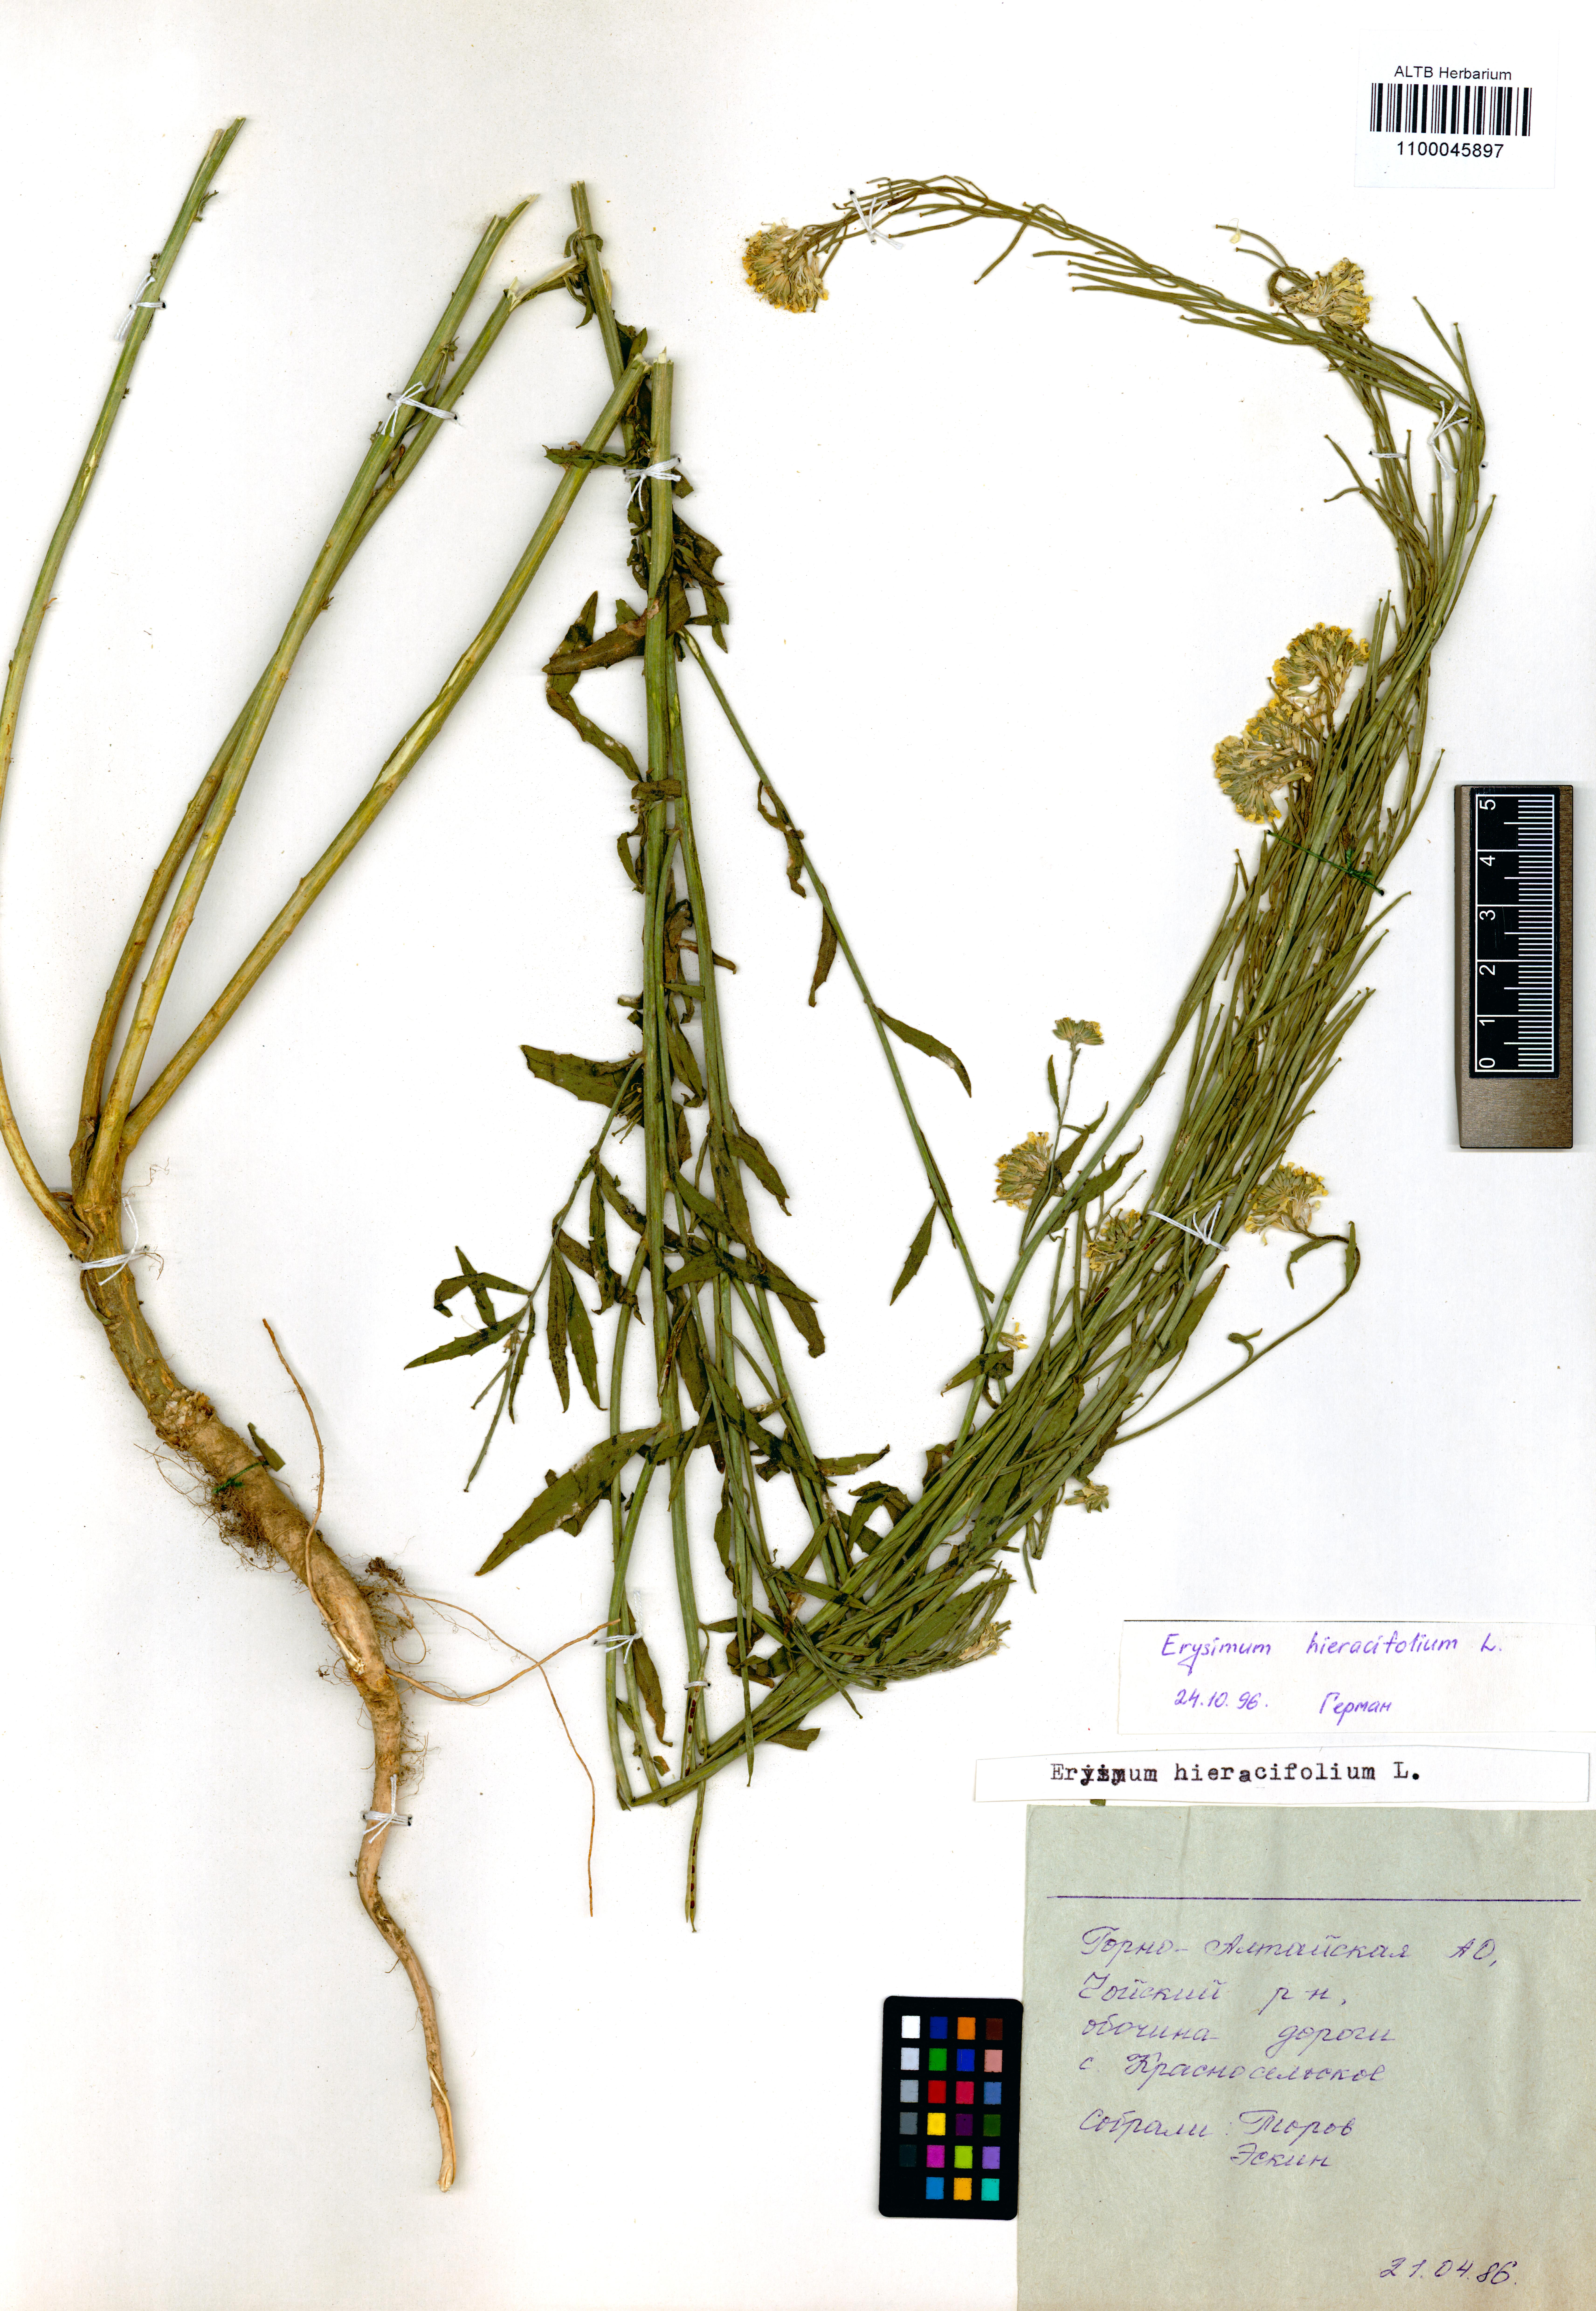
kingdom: Plantae
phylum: Tracheophyta
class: Magnoliopsida
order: Brassicales
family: Brassicaceae
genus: Erysimum
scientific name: Erysimum hieraciifolium
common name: European wallflower
